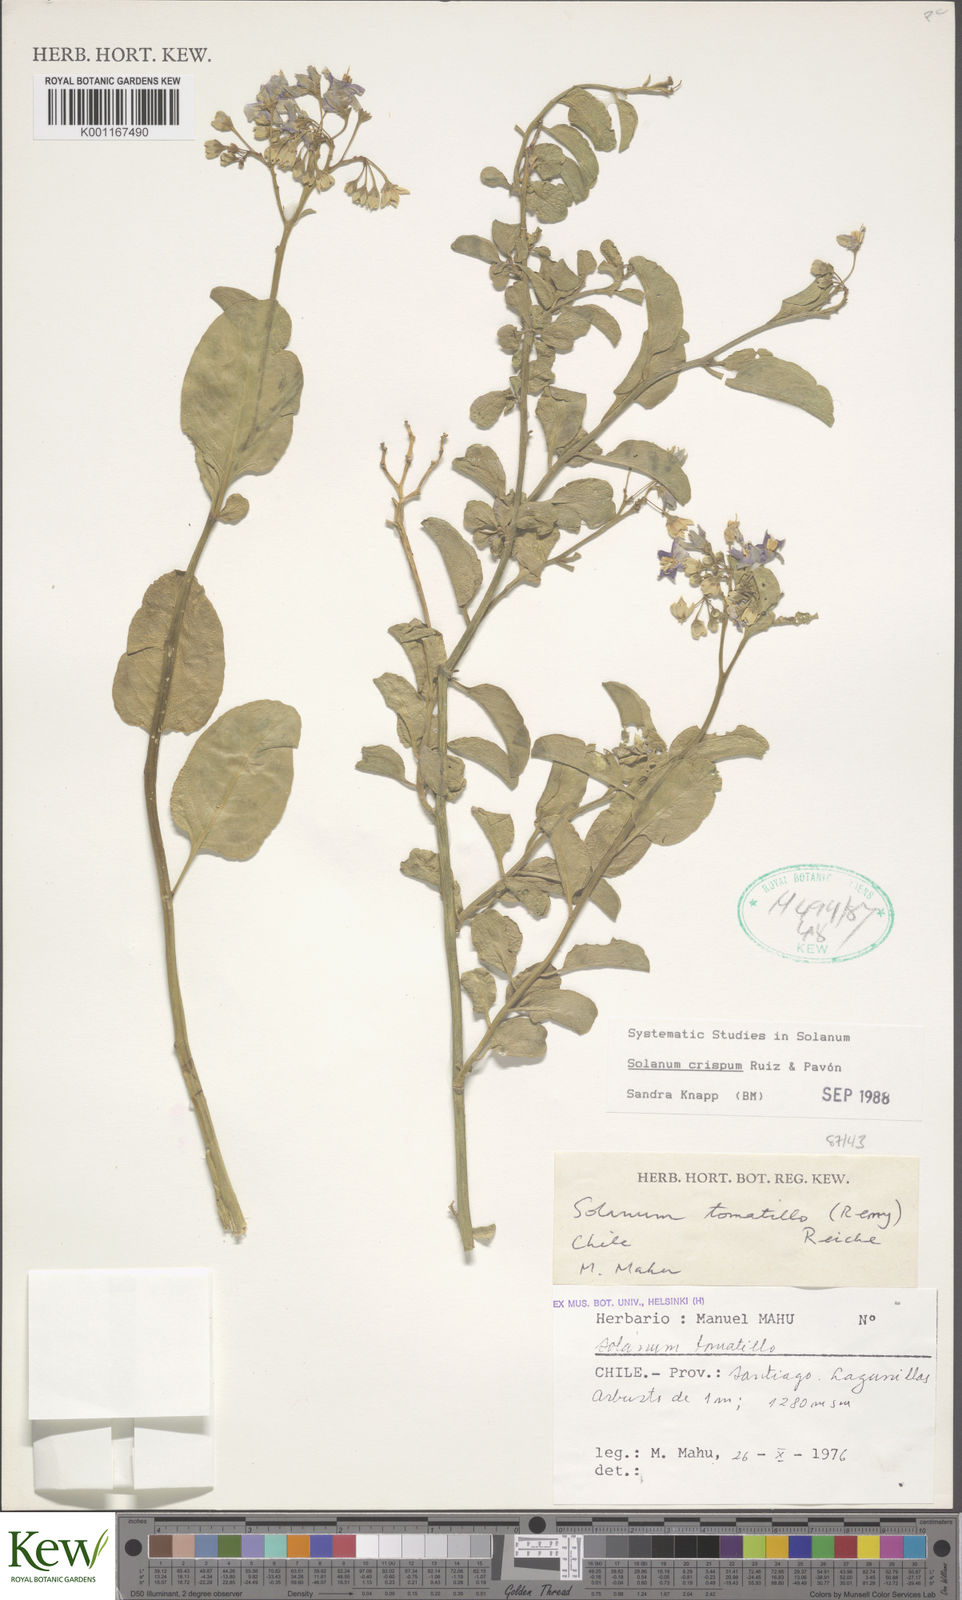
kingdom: Plantae
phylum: Tracheophyta
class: Magnoliopsida
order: Solanales
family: Solanaceae
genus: Solanum
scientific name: Solanum crispum
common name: Chilean nightshade
